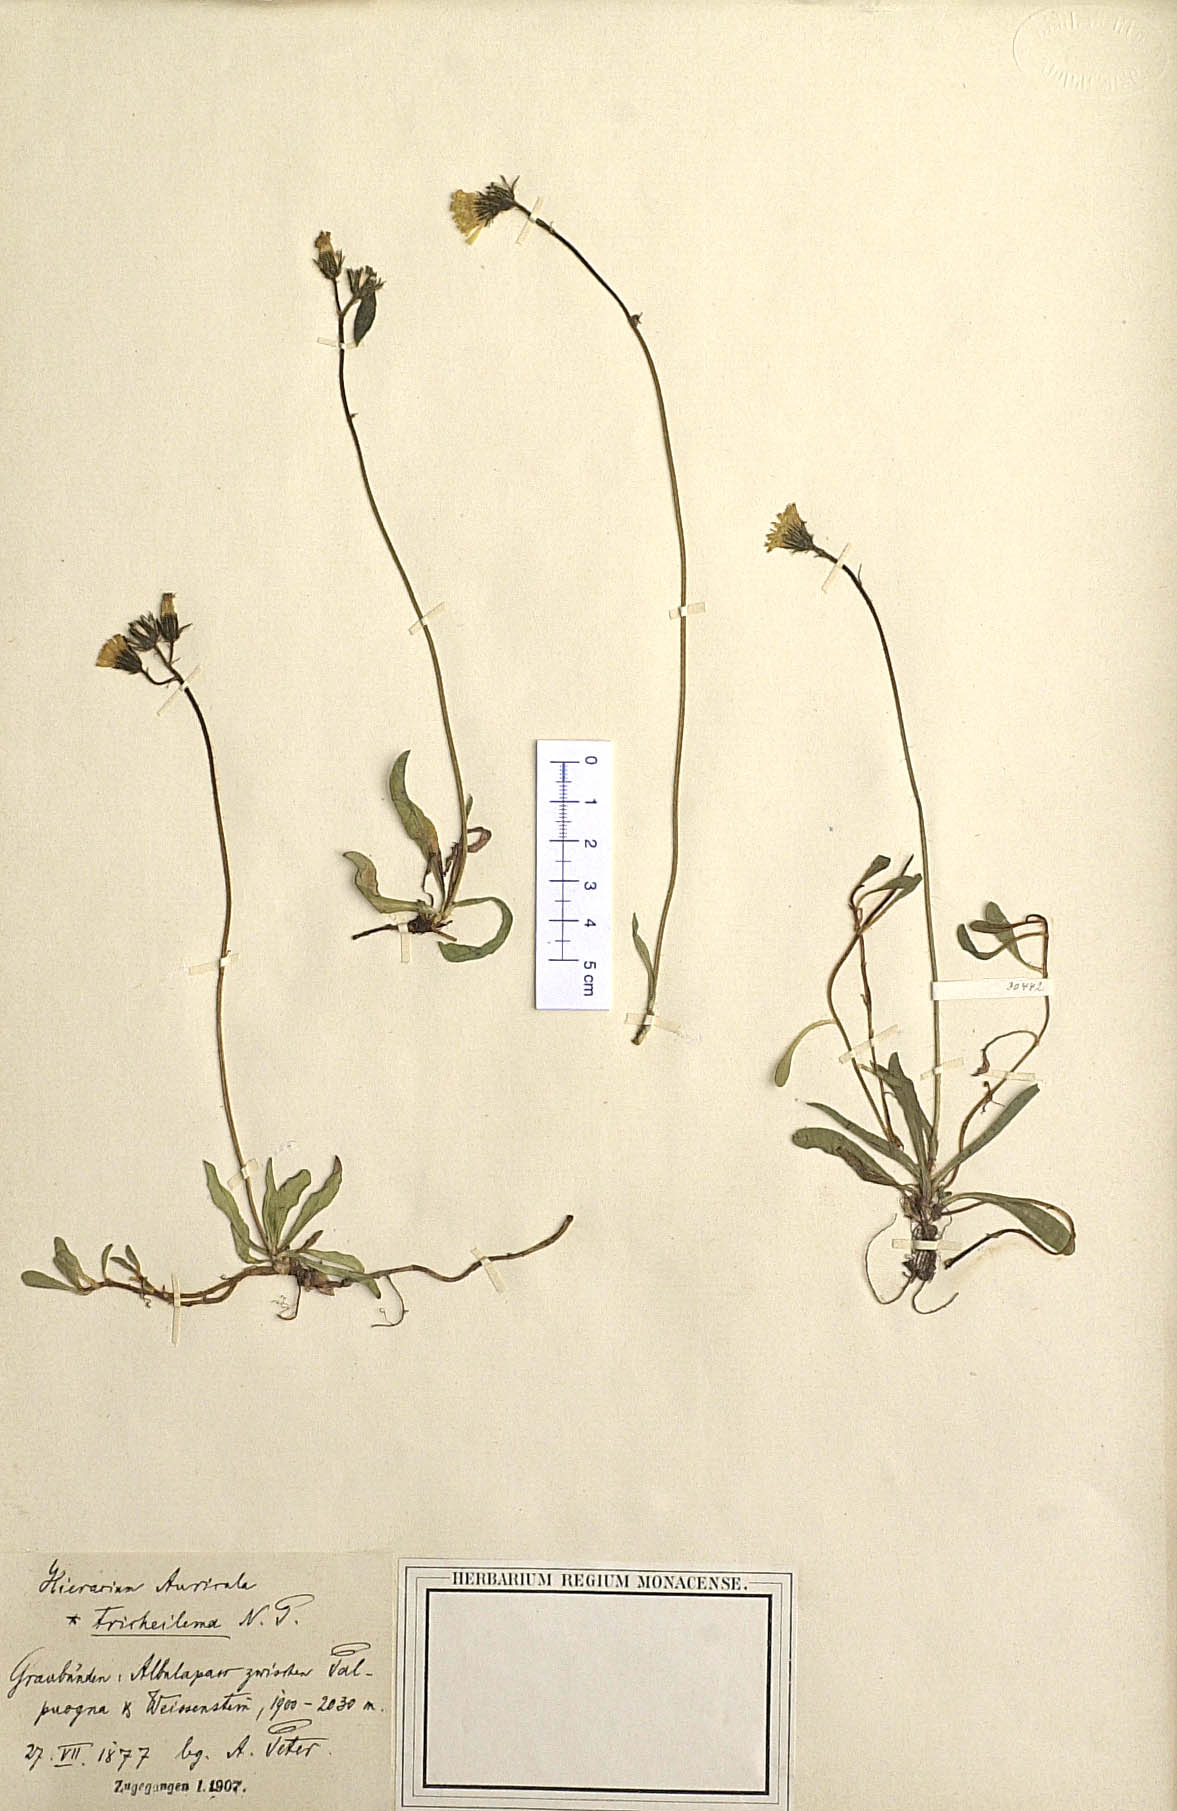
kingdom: Plantae
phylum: Tracheophyta
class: Magnoliopsida
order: Asterales
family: Asteraceae
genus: Pilosella
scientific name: Pilosella lactucella
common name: Glaucous fox-and-cubs
